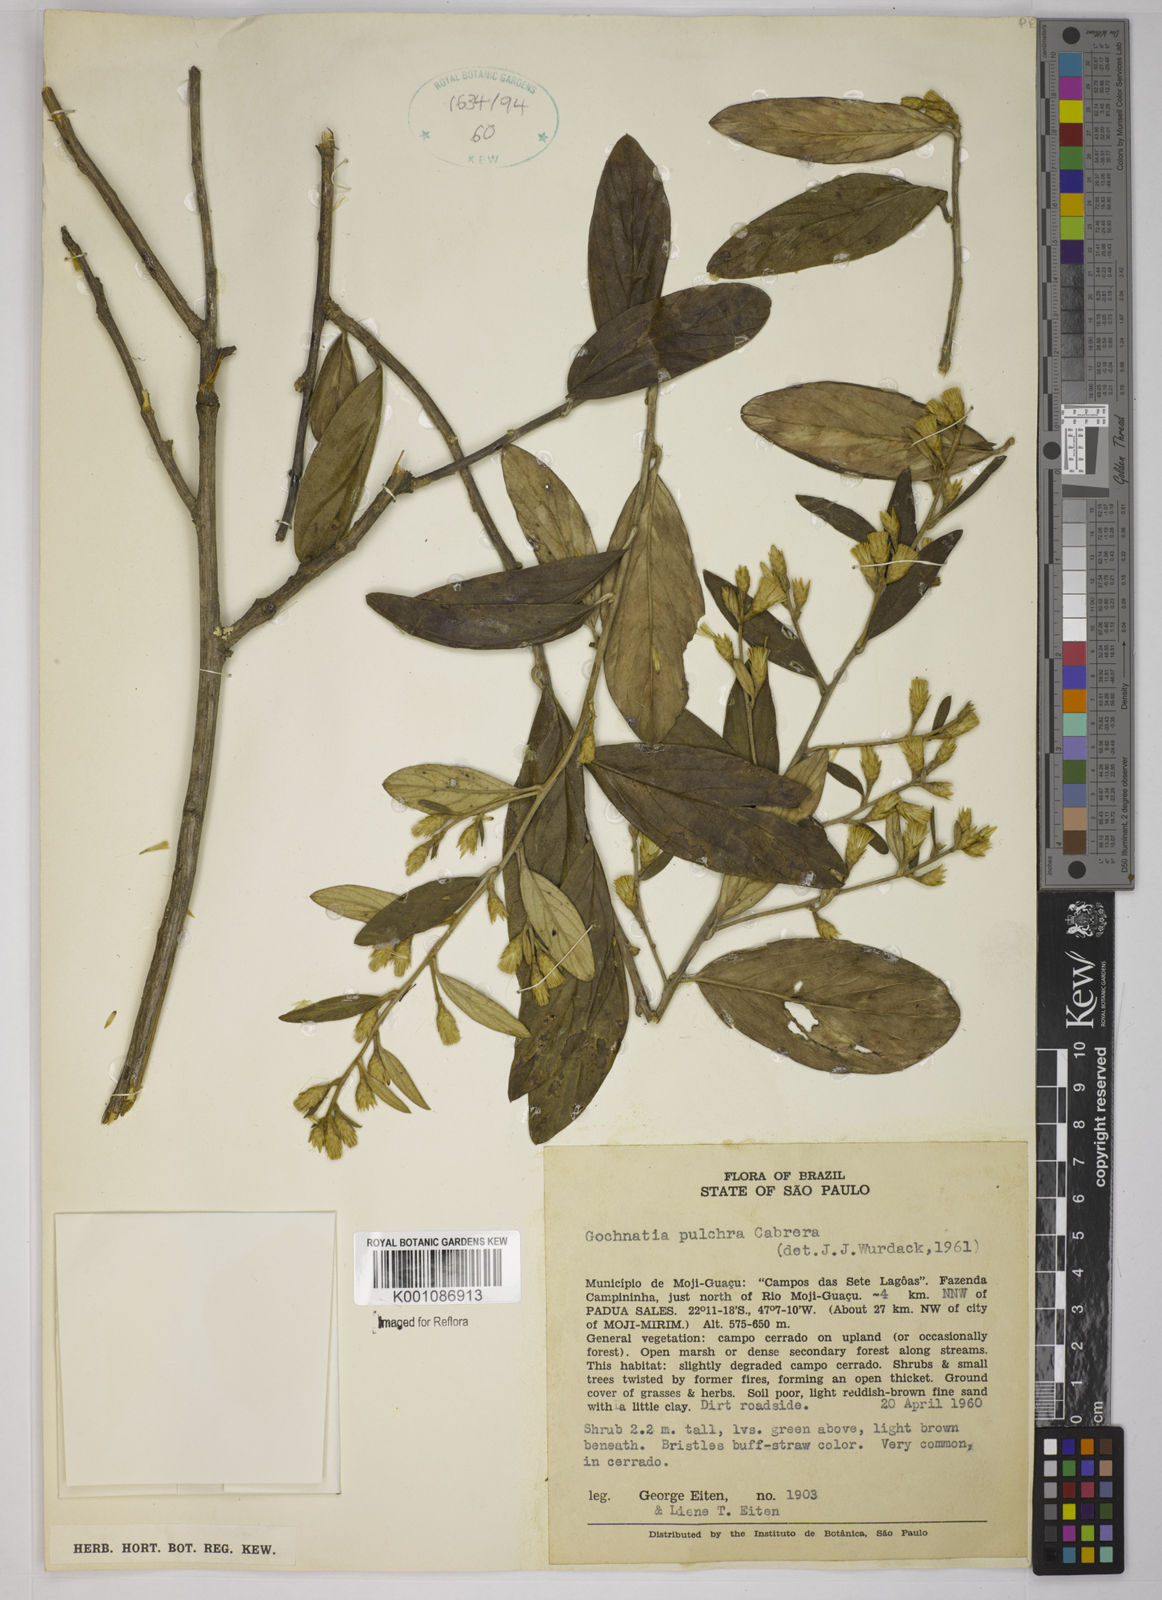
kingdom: Plantae
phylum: Tracheophyta
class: Magnoliopsida
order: Asterales
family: Asteraceae
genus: Moquiniastrum
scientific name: Moquiniastrum pulchrum
